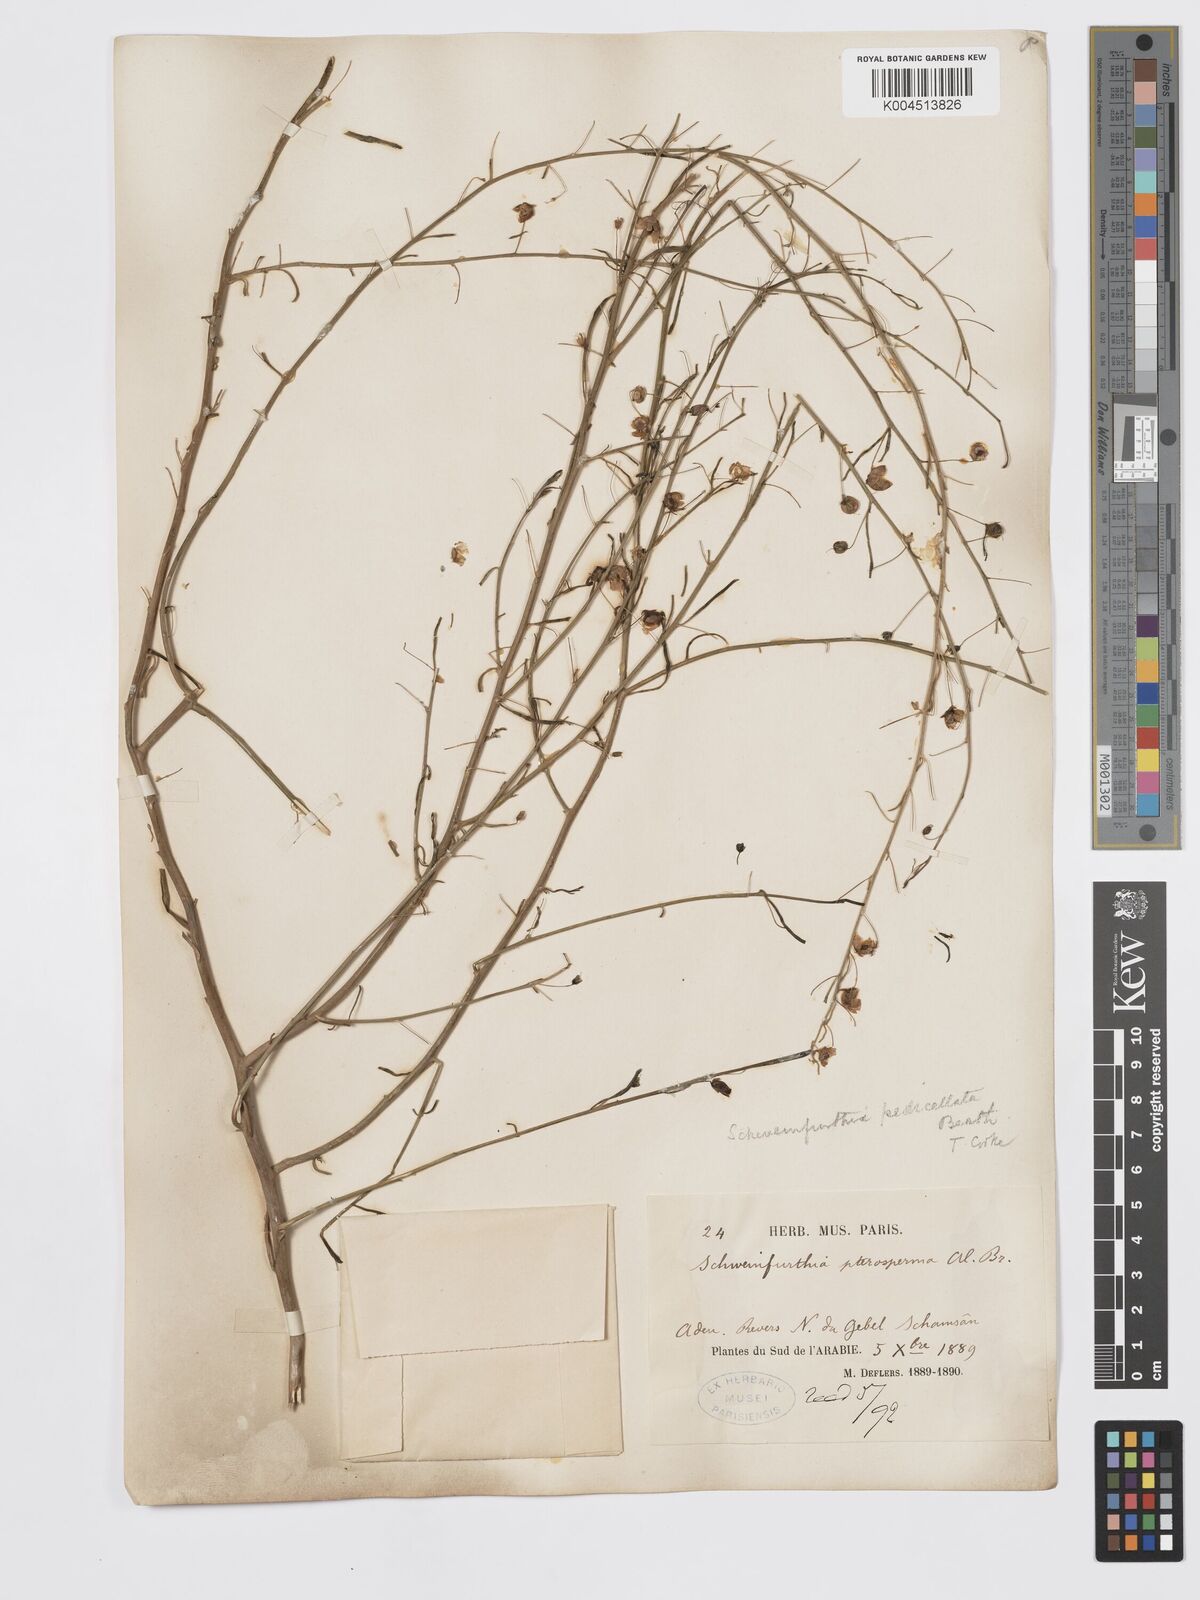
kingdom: Plantae
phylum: Tracheophyta
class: Magnoliopsida
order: Lamiales
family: Plantaginaceae
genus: Schweinfurthia
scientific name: Schweinfurthia pedicellata
